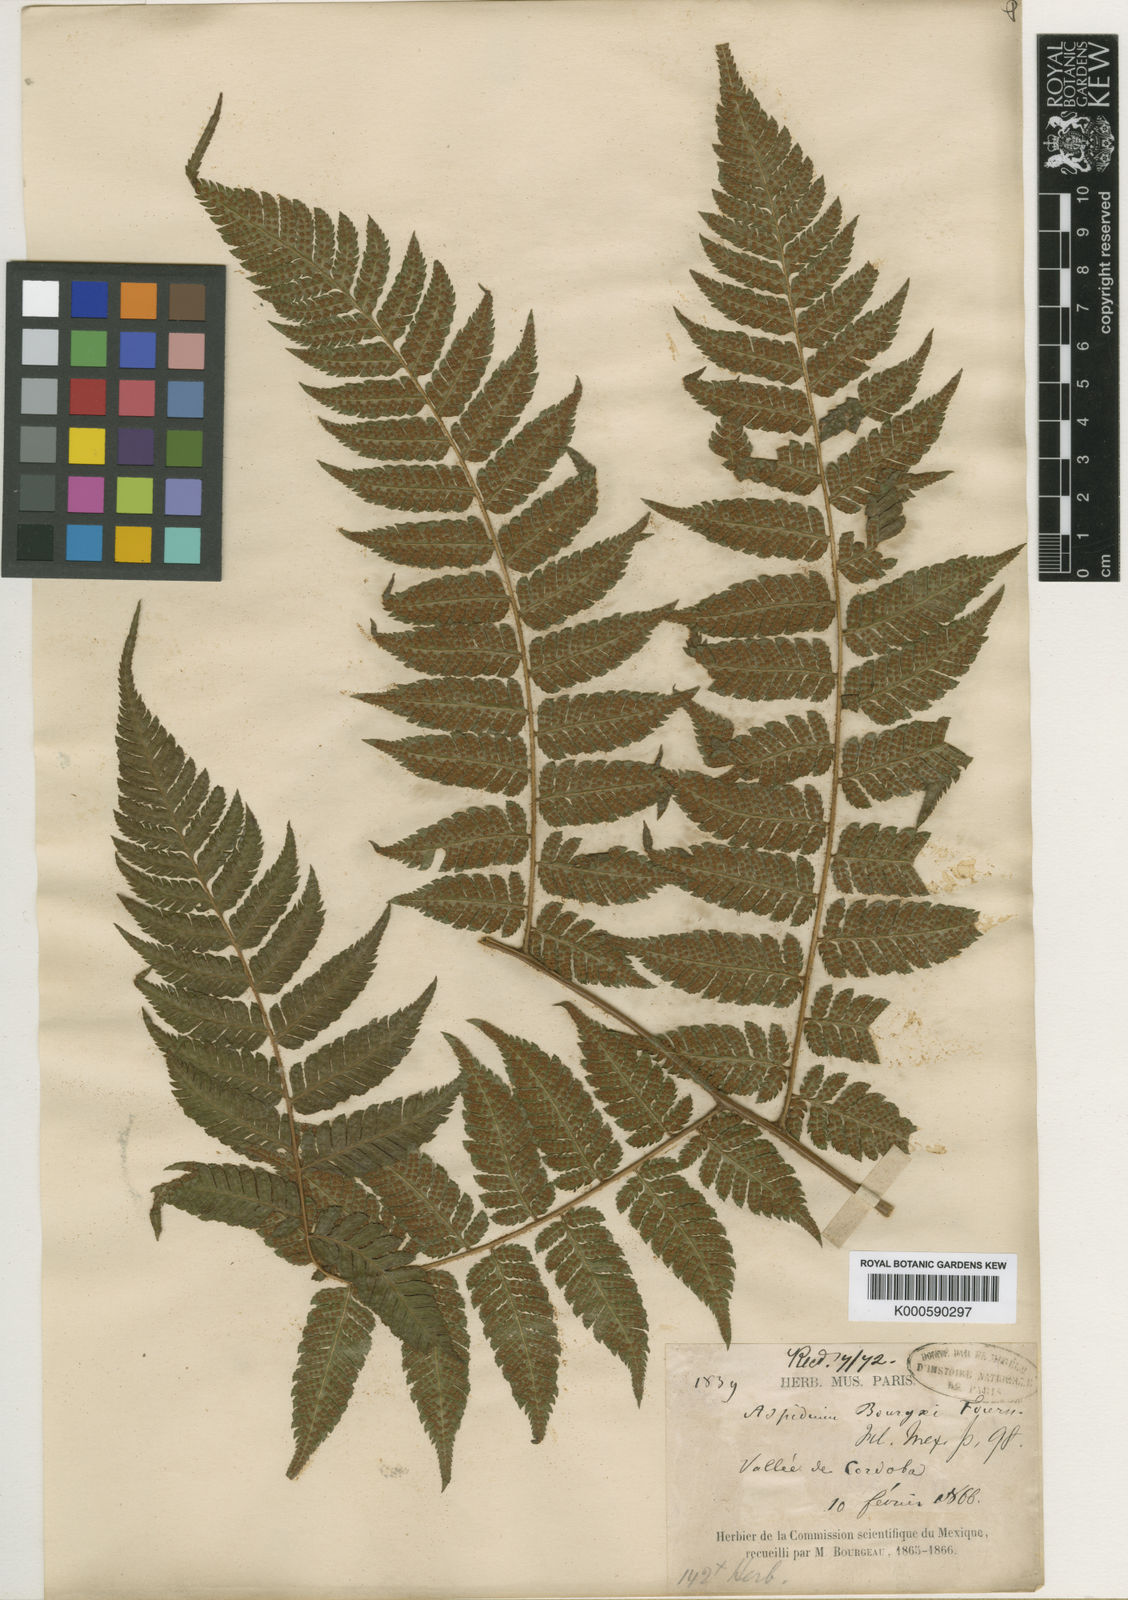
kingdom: Plantae
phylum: Tracheophyta
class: Polypodiopsida
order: Polypodiales
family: Dryopteridaceae
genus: Ctenitis
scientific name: Ctenitis equestris
